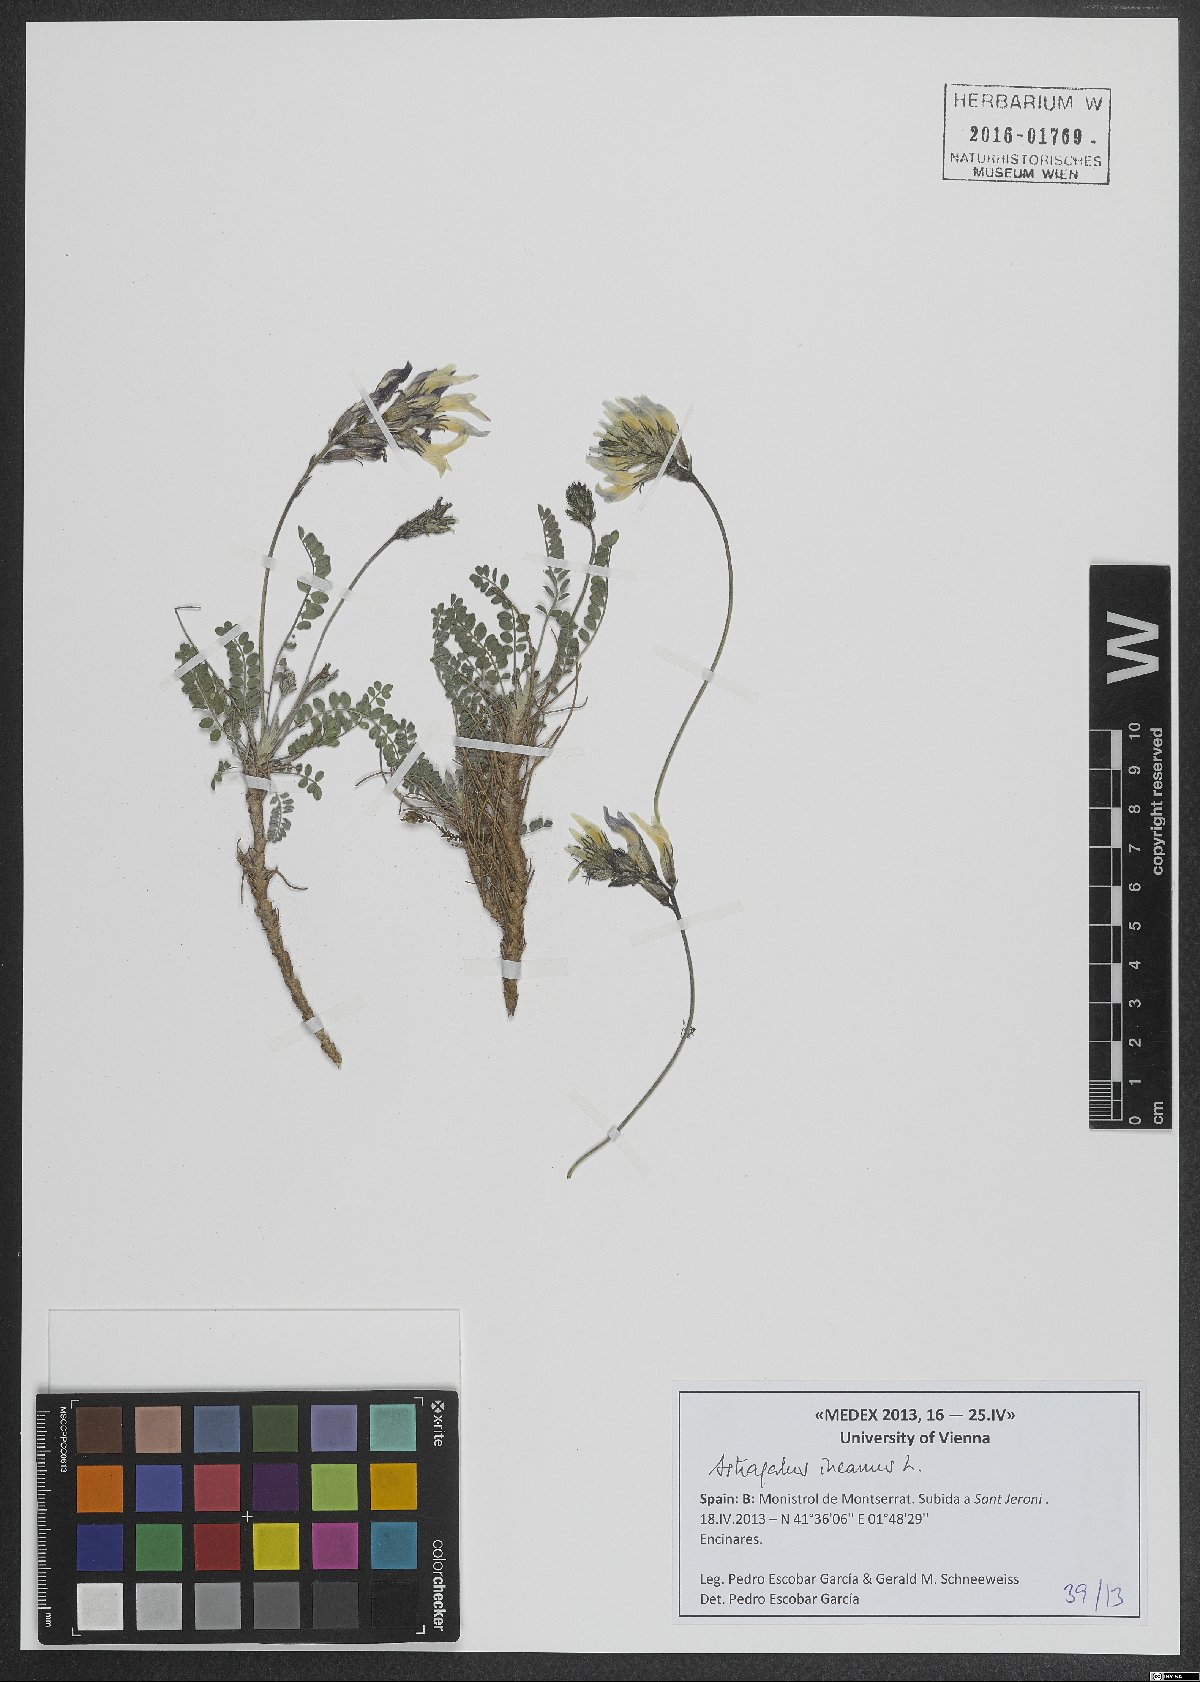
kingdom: Plantae
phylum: Tracheophyta
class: Magnoliopsida
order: Fabales
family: Fabaceae
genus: Astragalus
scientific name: Astragalus incanus
